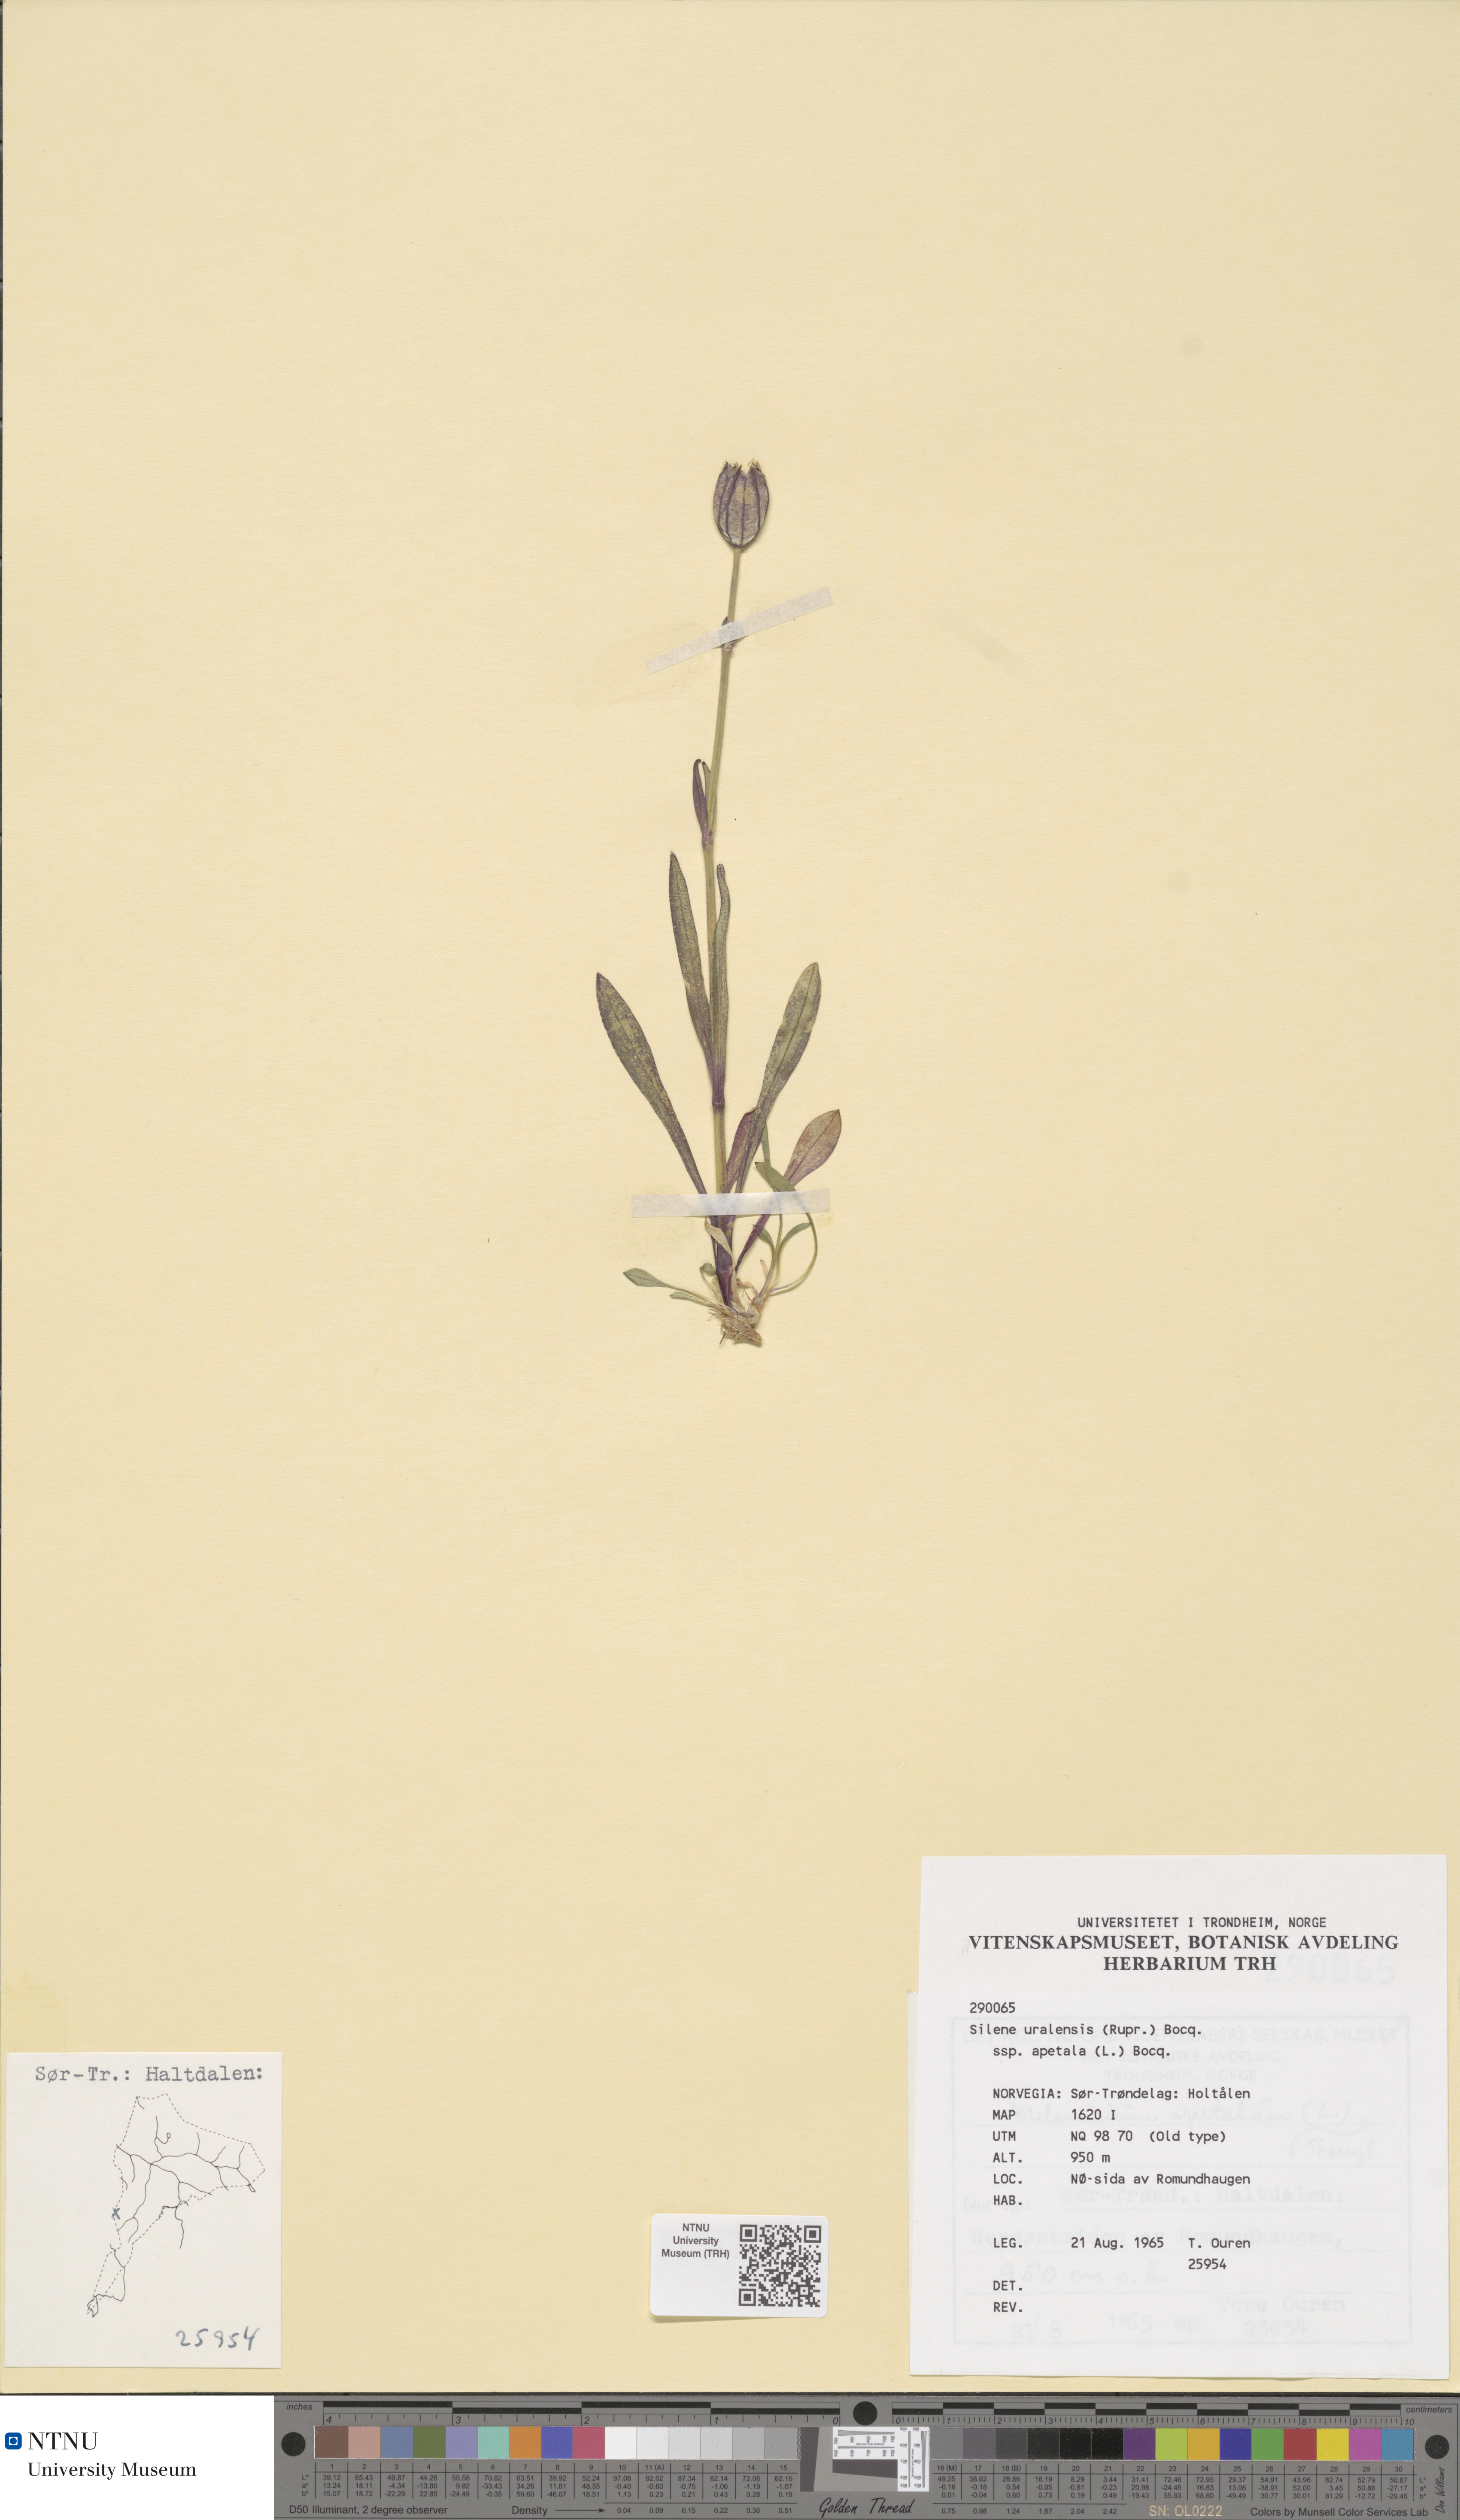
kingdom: Plantae
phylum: Tracheophyta
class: Magnoliopsida
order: Caryophyllales
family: Caryophyllaceae
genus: Silene
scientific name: Silene wahlbergella
